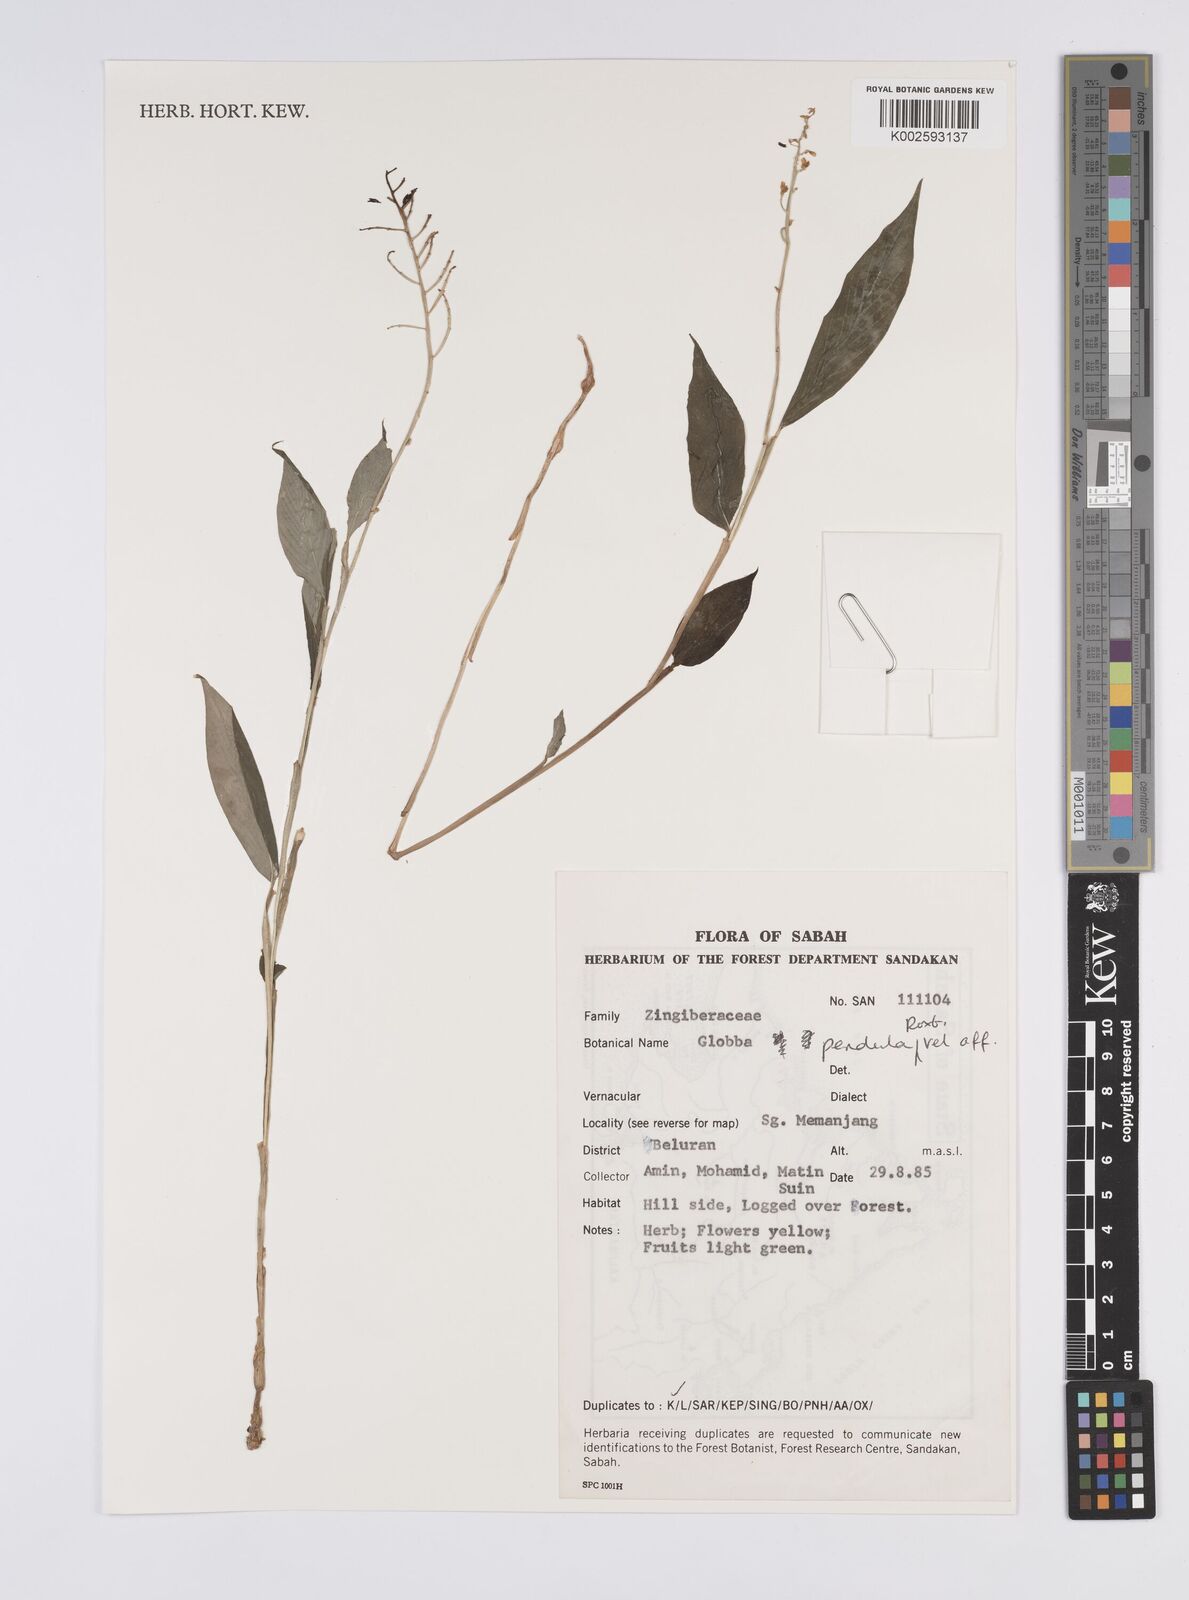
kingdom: Plantae
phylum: Tracheophyta
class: Liliopsida
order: Zingiberales
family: Zingiberaceae
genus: Globba
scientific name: Globba pendula
